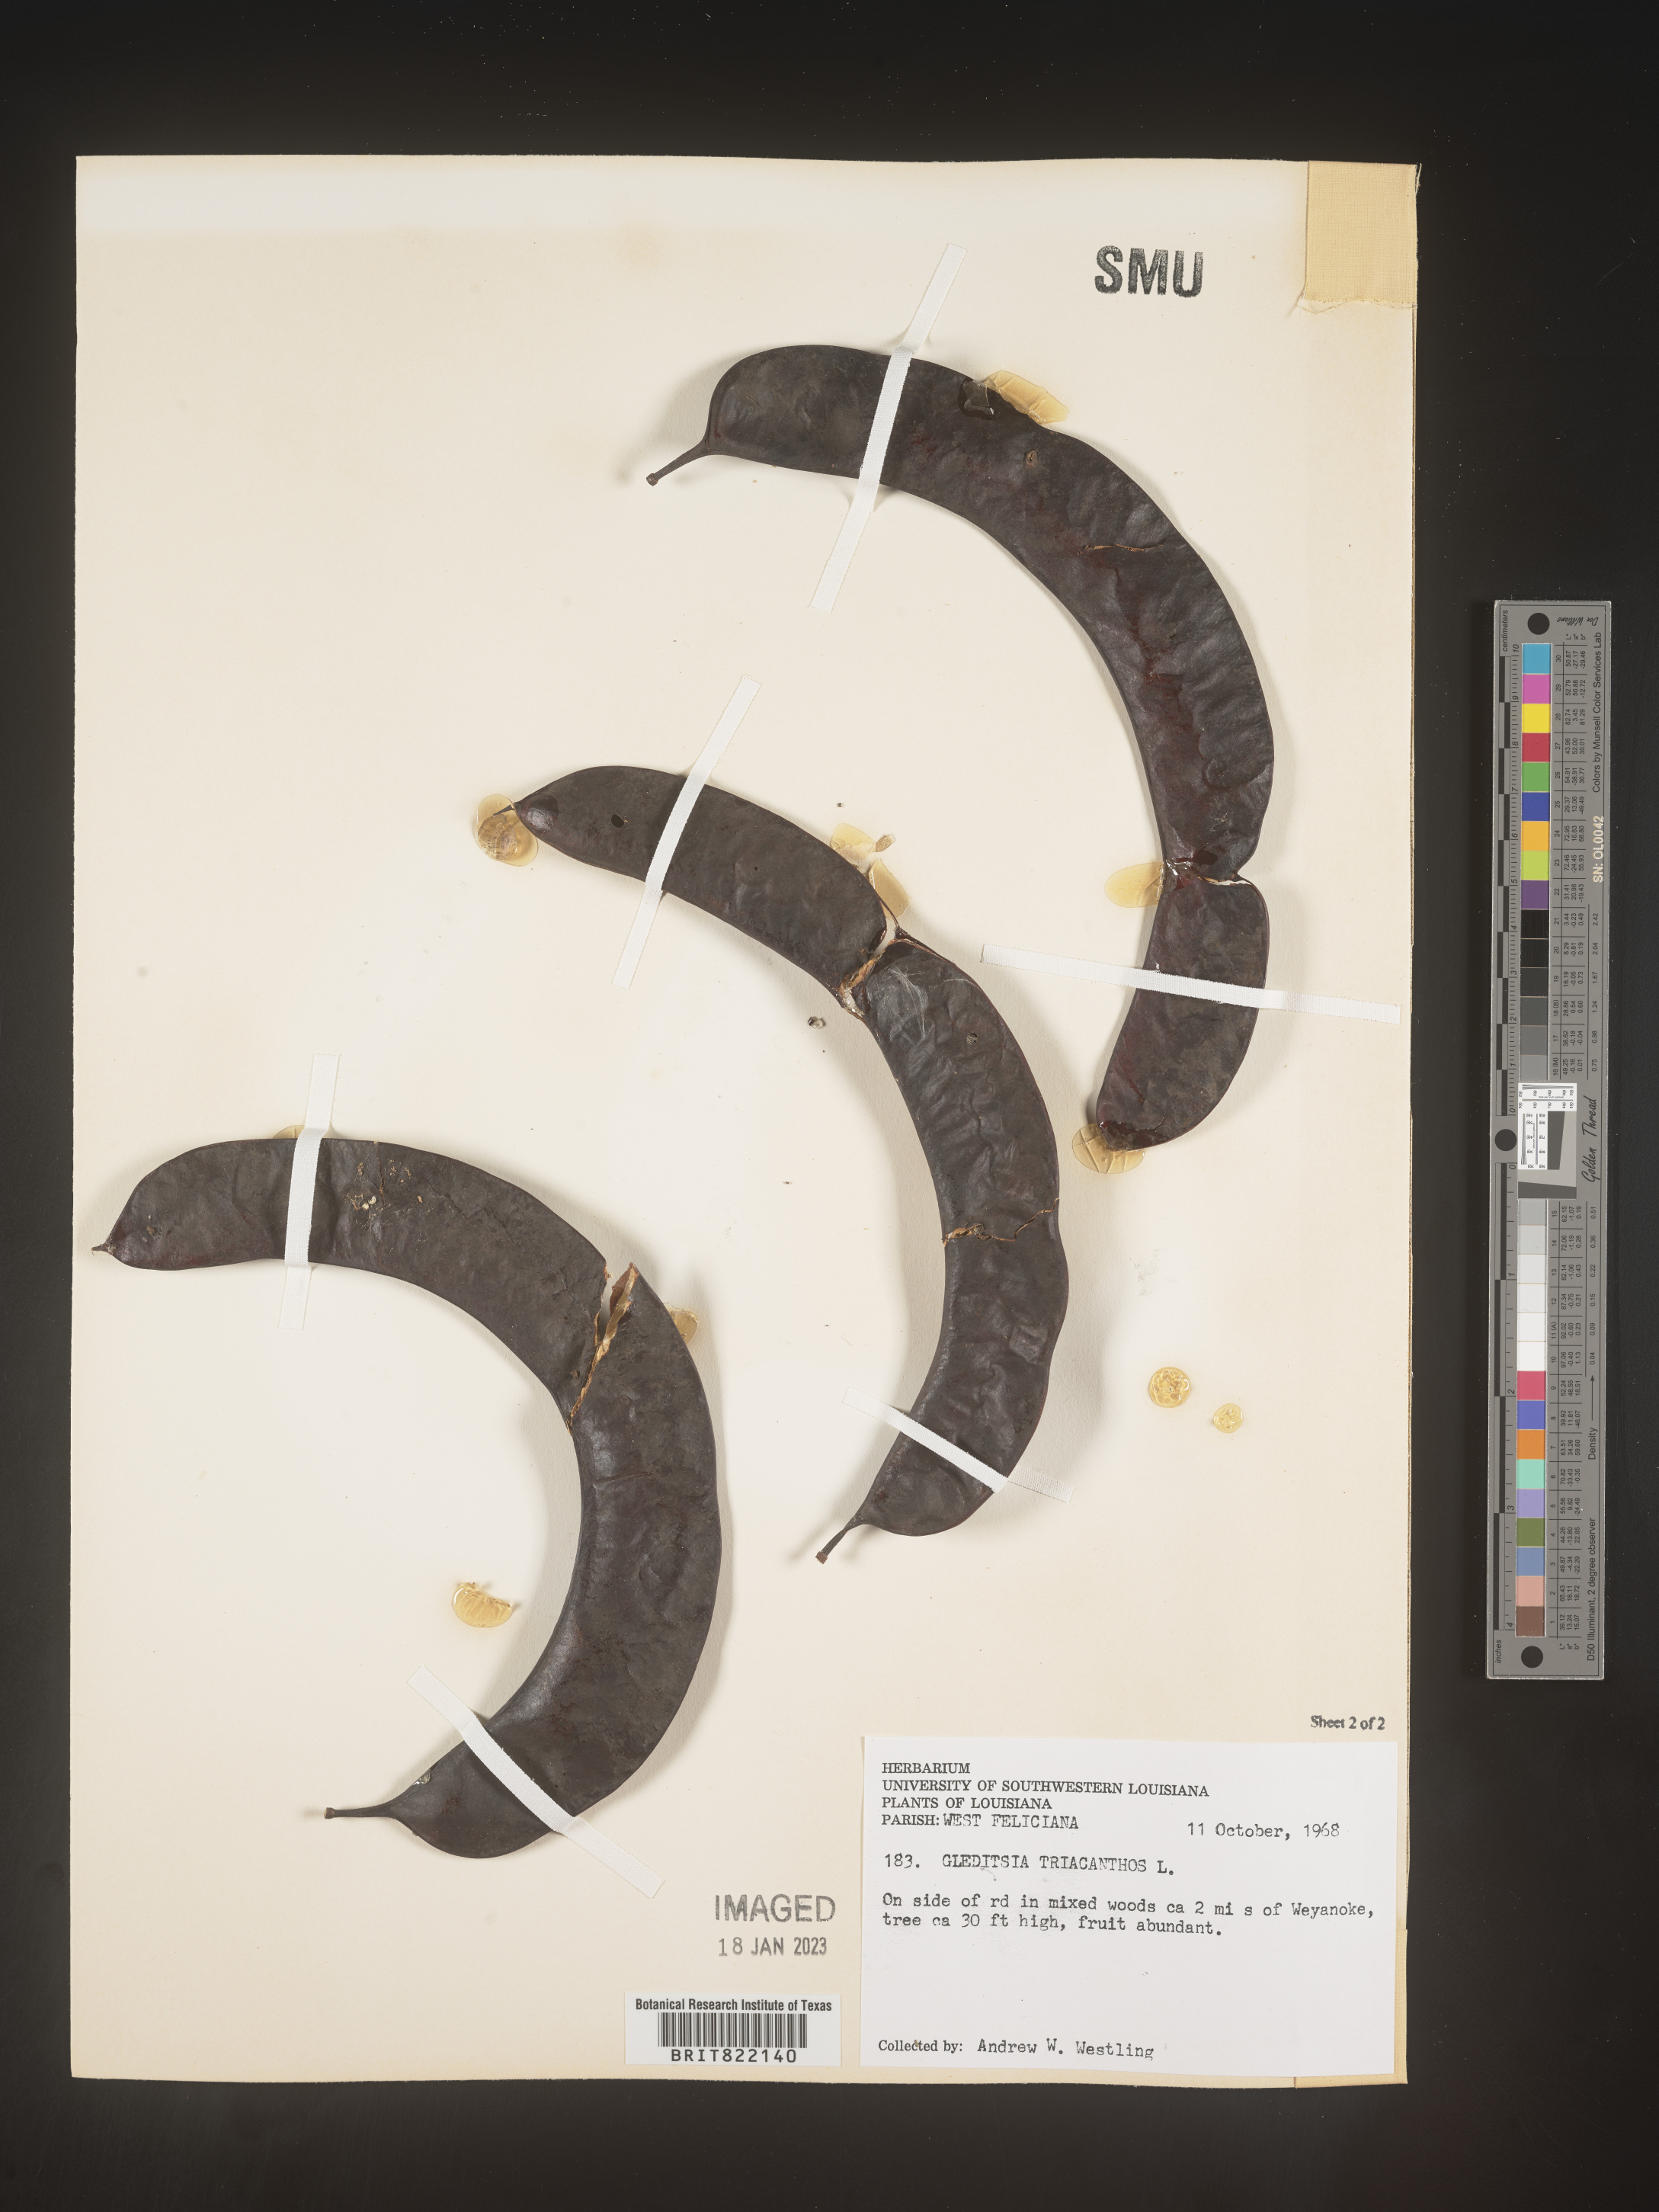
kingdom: Plantae
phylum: Tracheophyta
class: Magnoliopsida
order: Fabales
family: Fabaceae
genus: Gleditsia
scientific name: Gleditsia triacanthos
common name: Common honeylocust
